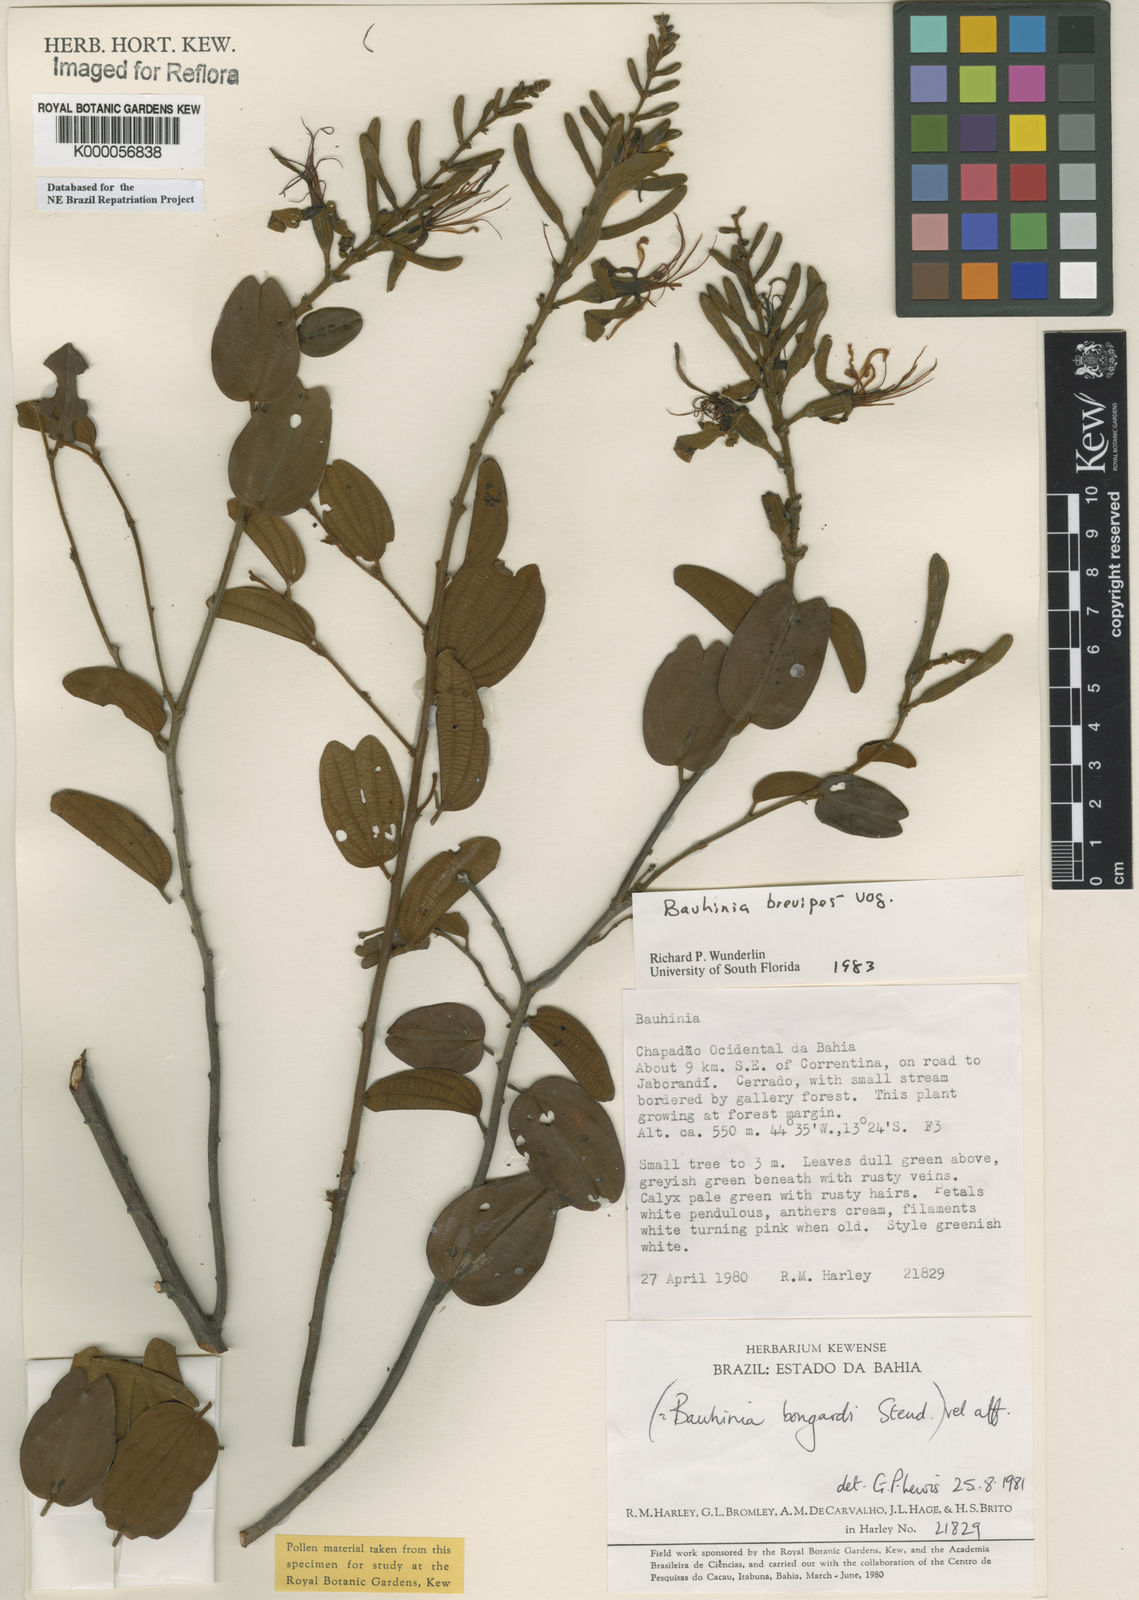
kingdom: Plantae
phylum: Tracheophyta
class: Magnoliopsida
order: Fabales
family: Fabaceae
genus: Bauhinia
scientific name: Bauhinia brevipes
